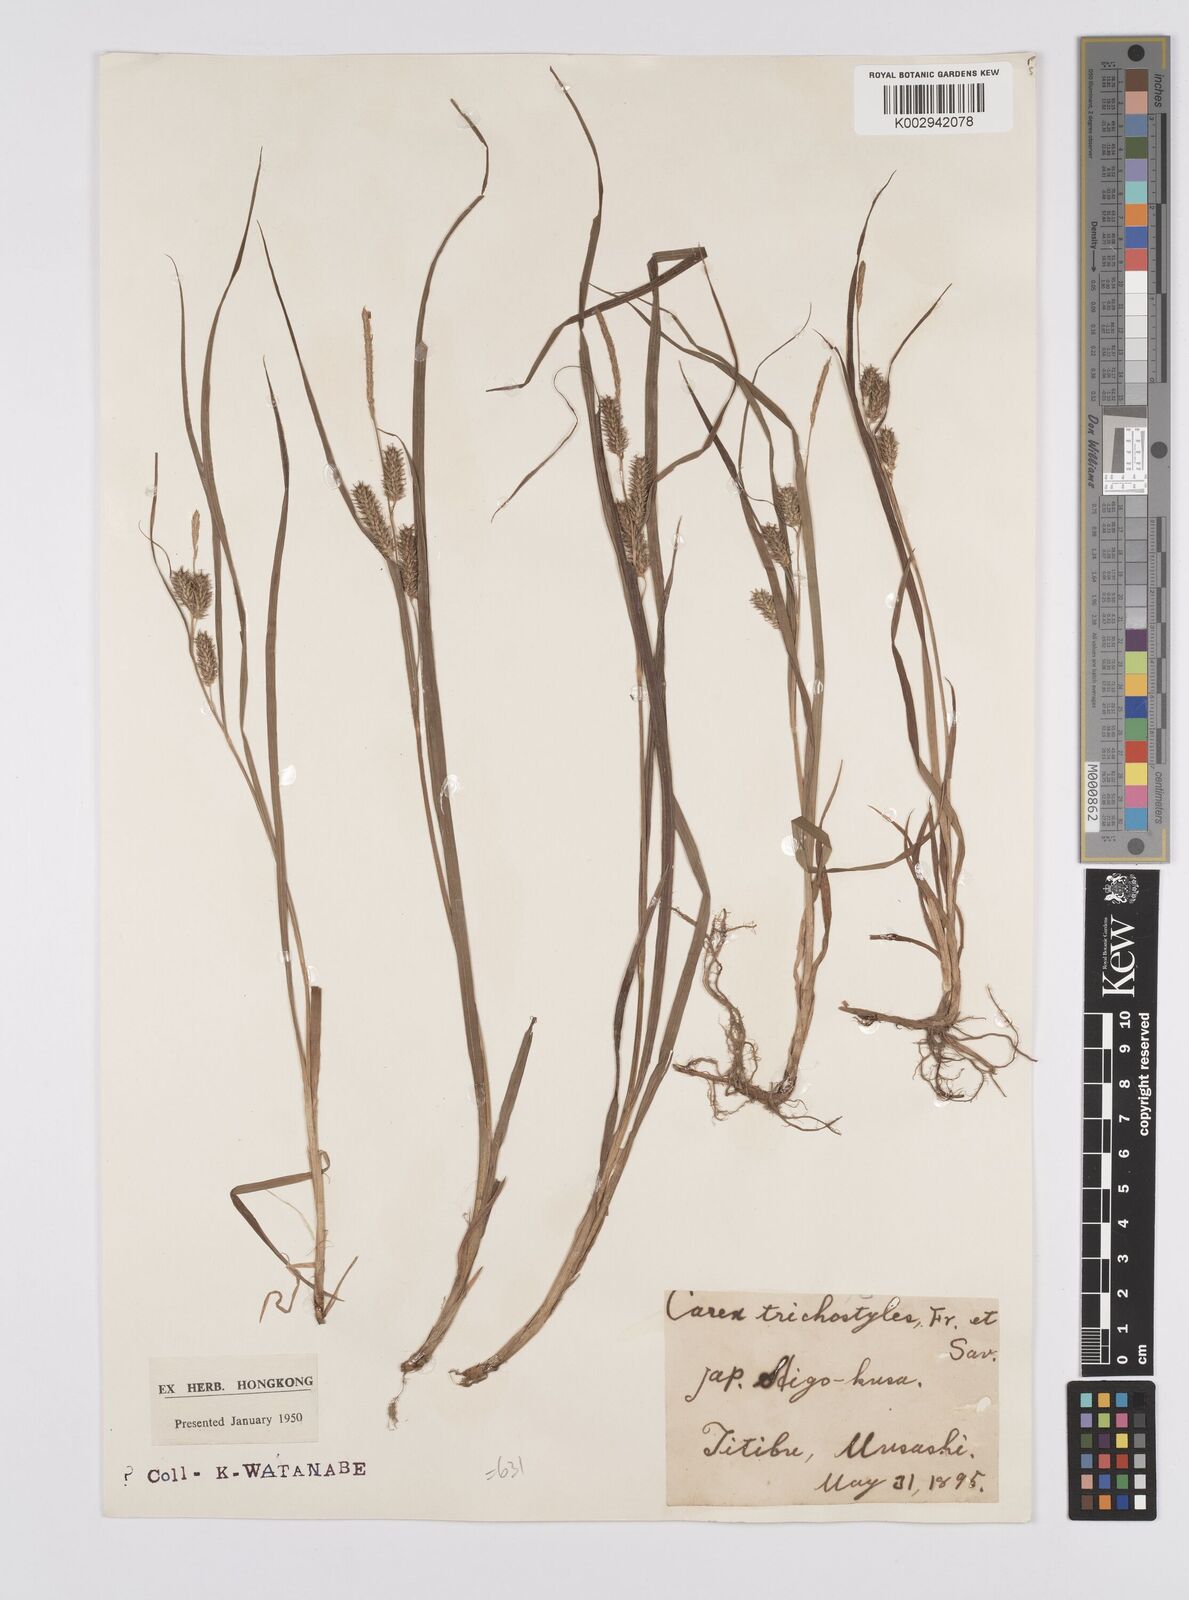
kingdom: Plantae
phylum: Tracheophyta
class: Liliopsida
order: Poales
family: Cyperaceae
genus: Carex
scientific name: Carex japonica
